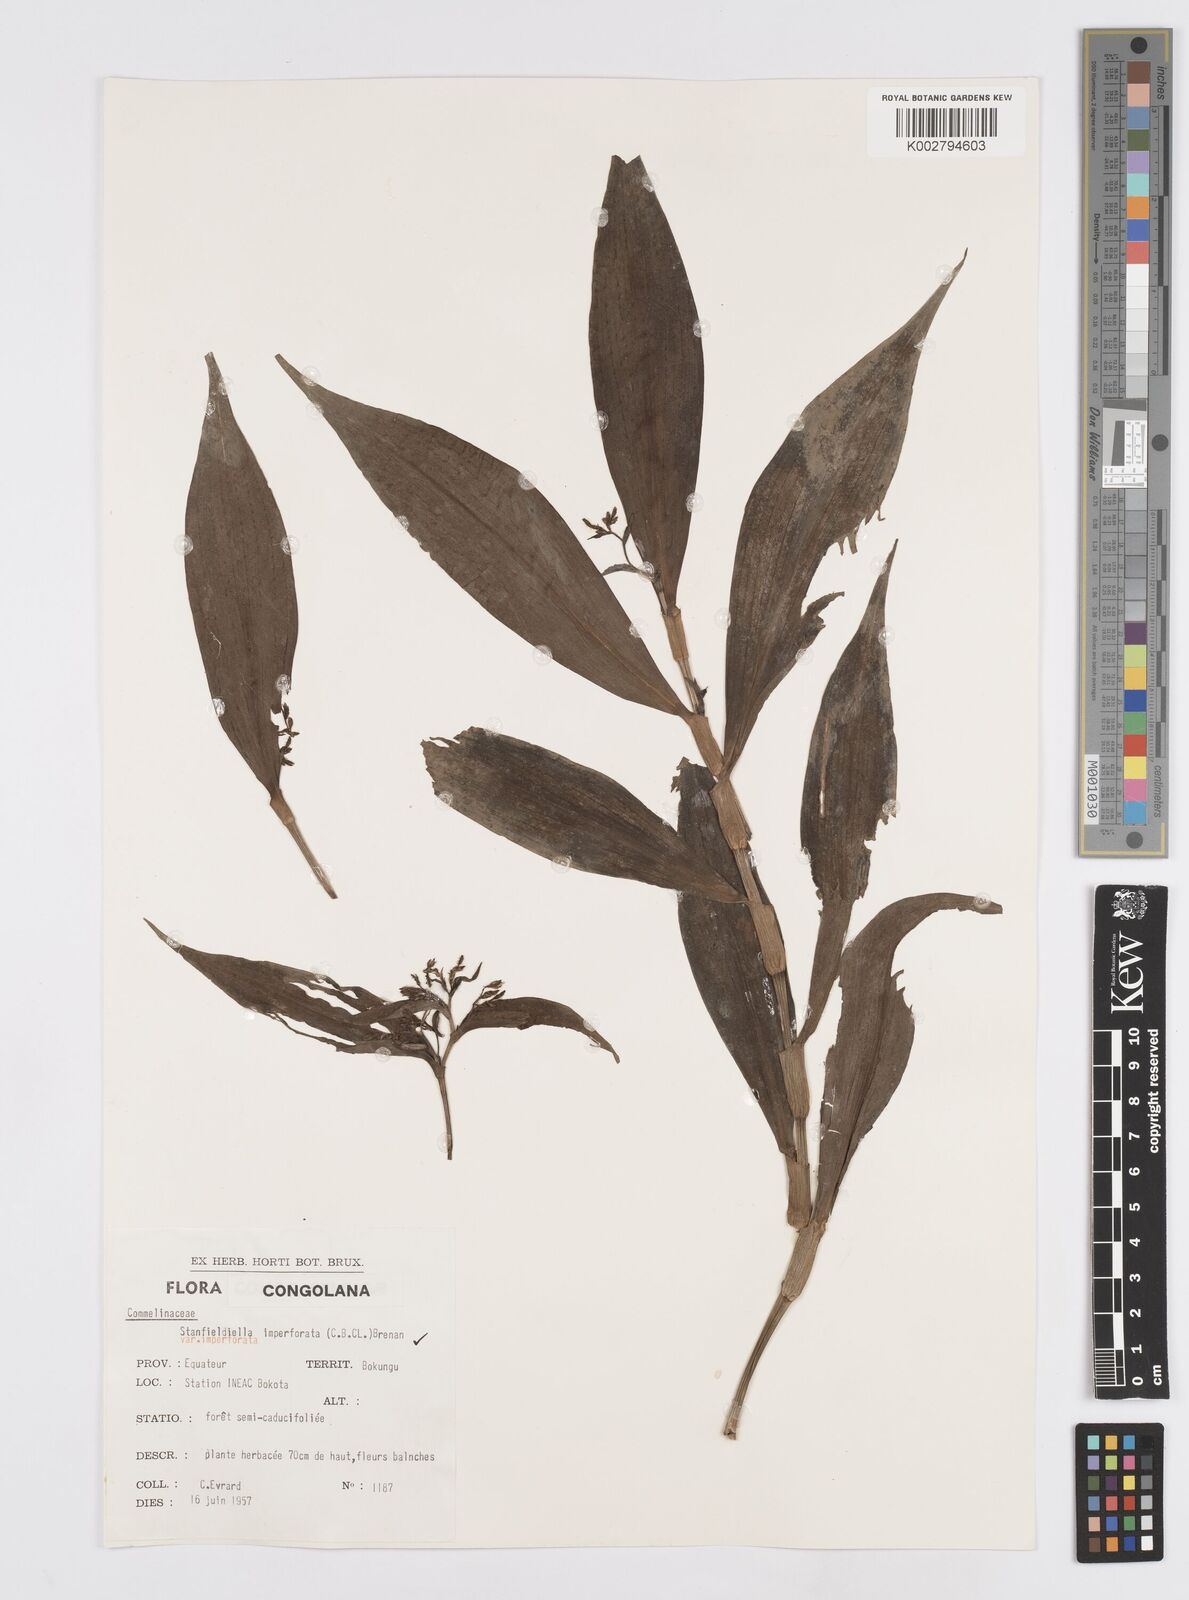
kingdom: Plantae
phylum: Tracheophyta
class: Liliopsida
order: Commelinales
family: Commelinaceae
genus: Stanfieldiella
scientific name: Stanfieldiella imperforata
